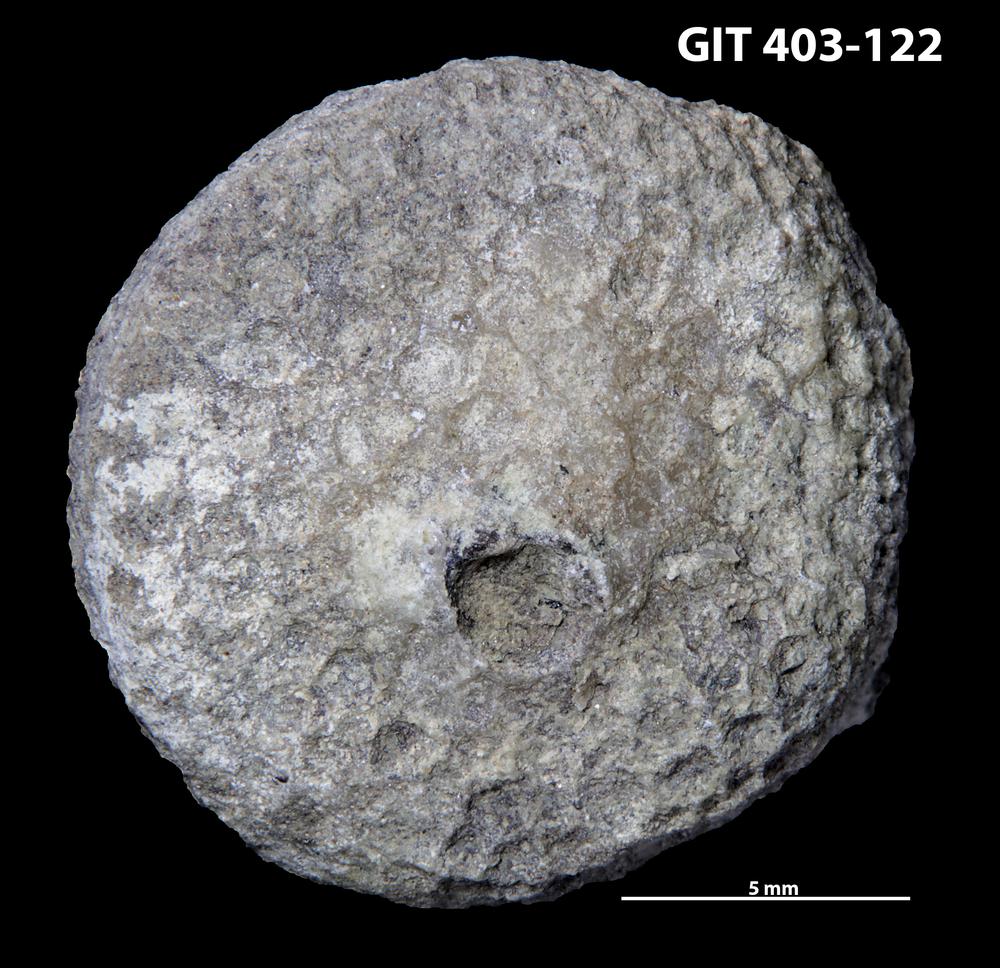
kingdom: Animalia
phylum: Cnidaria
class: Anthozoa
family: Favositidae
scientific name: Favositidae
